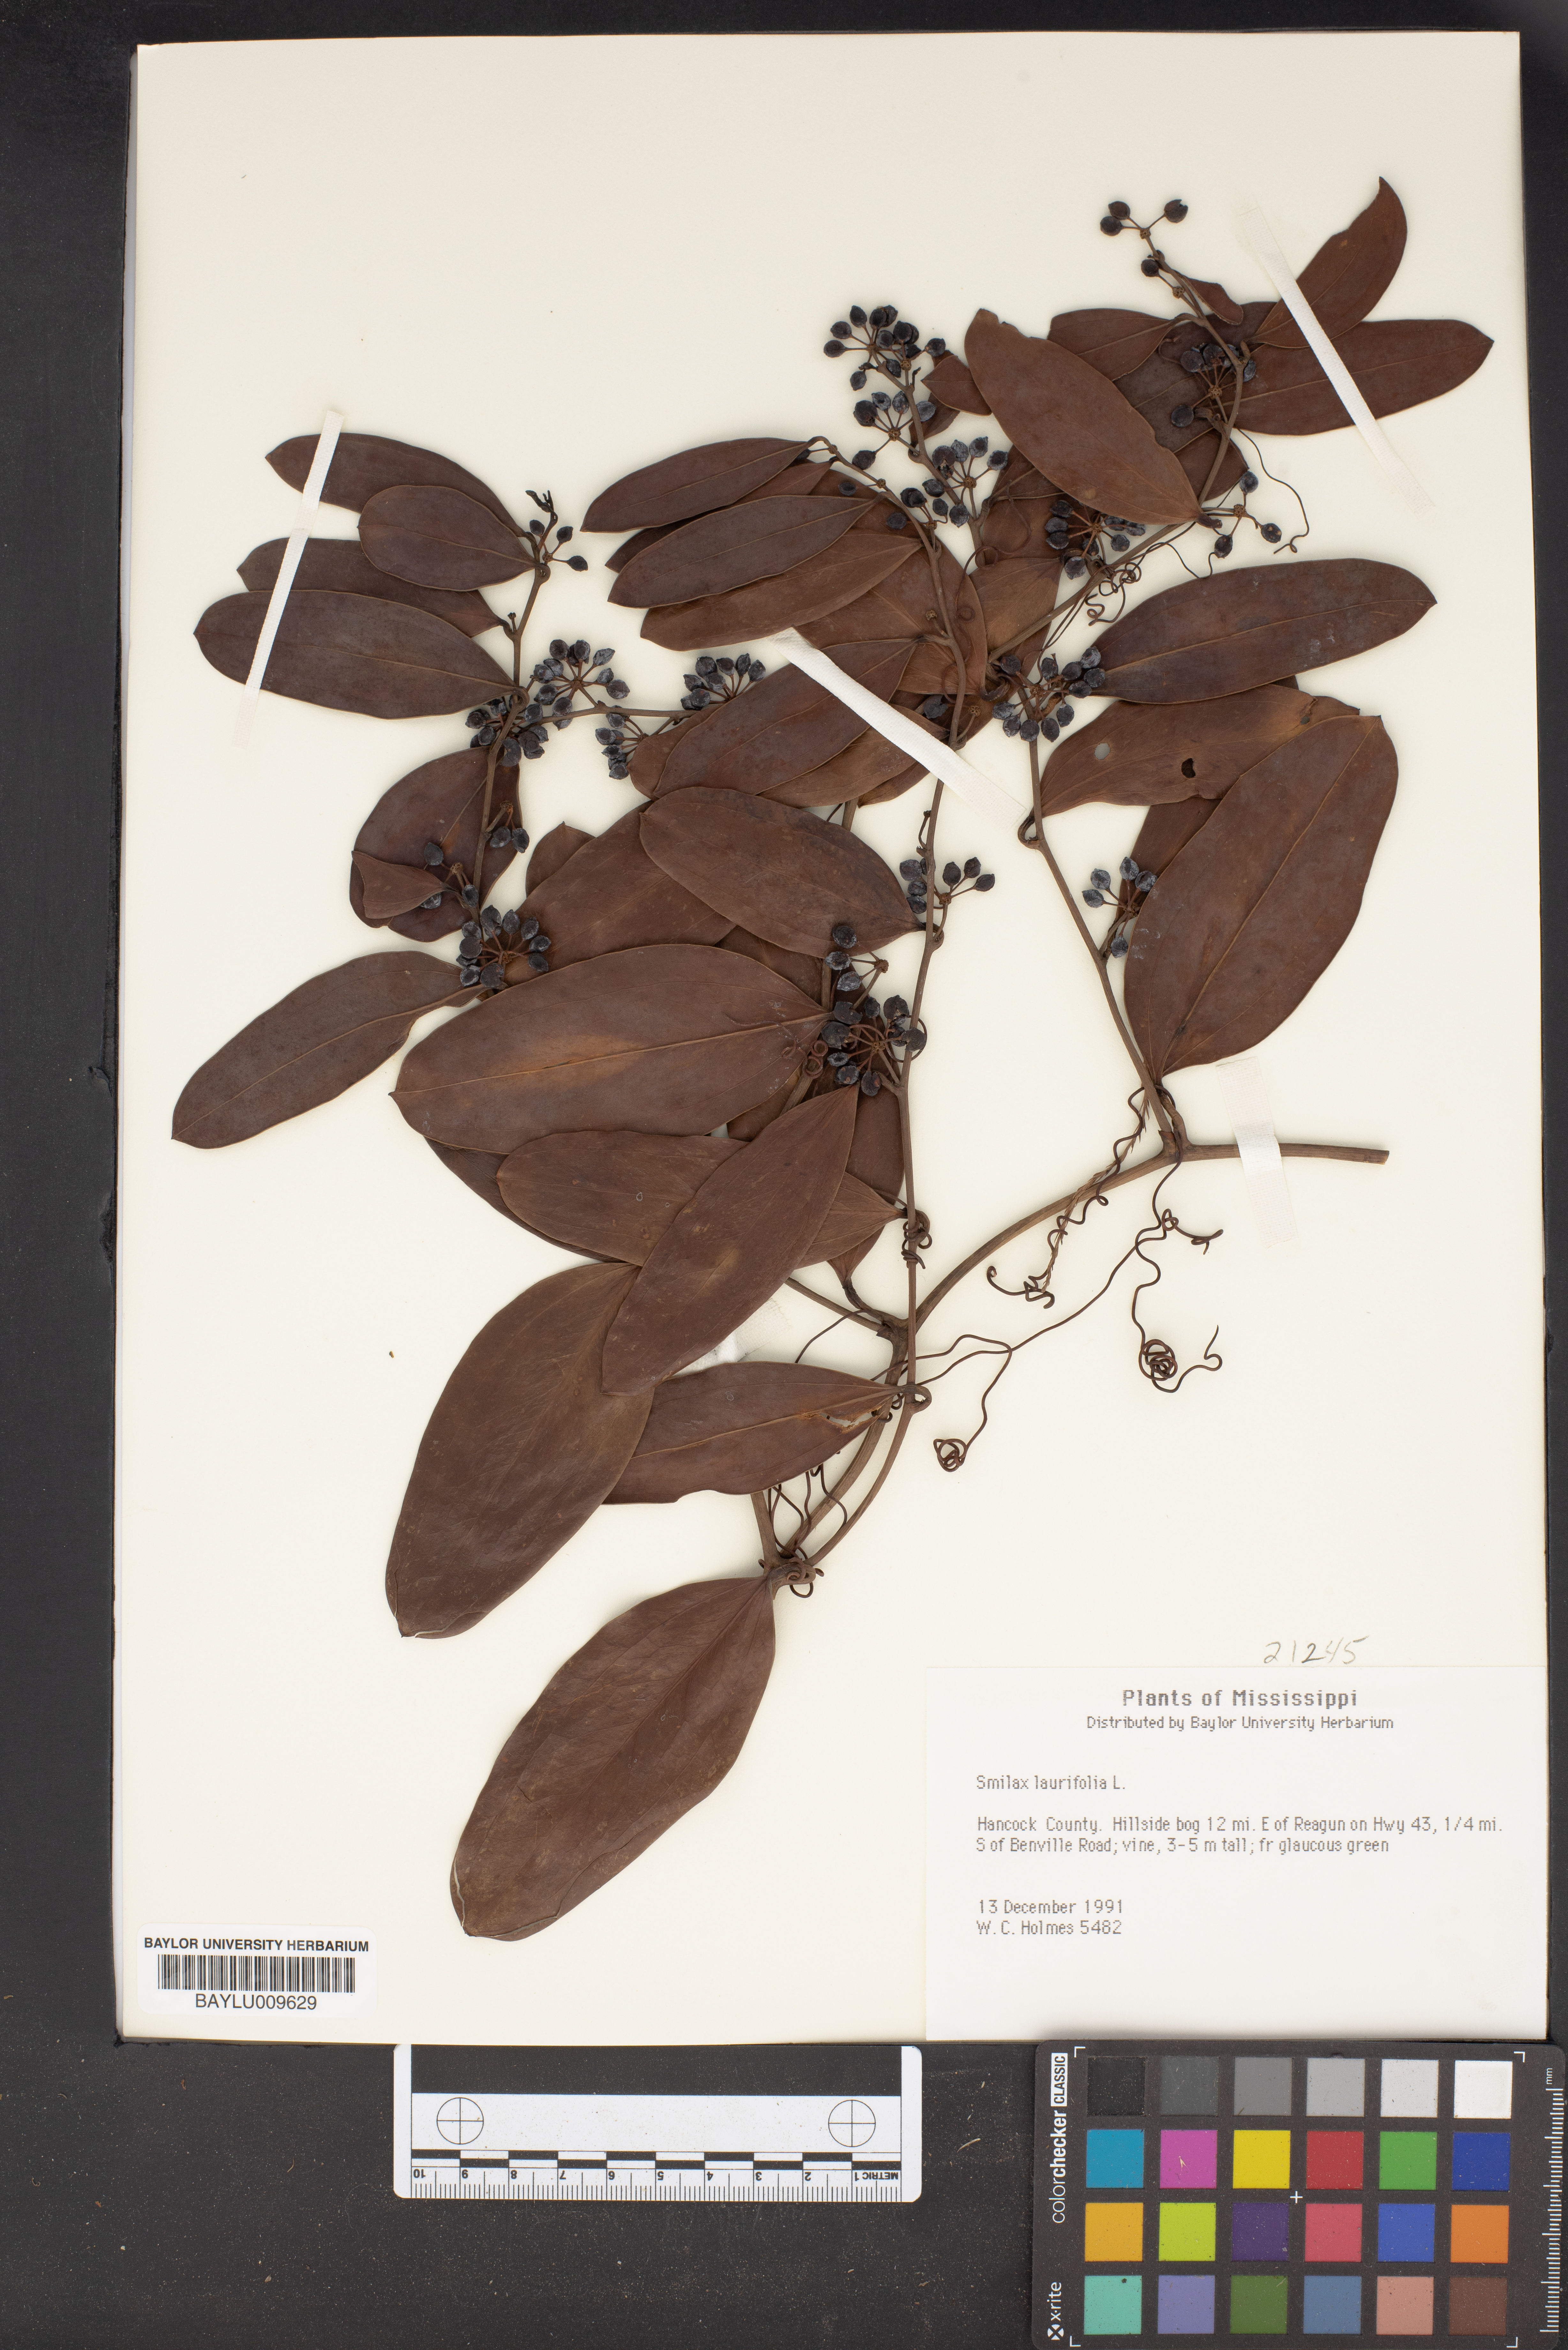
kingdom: Plantae
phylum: Tracheophyta
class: Liliopsida
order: Liliales
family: Smilacaceae
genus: Smilax
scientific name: Smilax laurifolia
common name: Bamboovine
